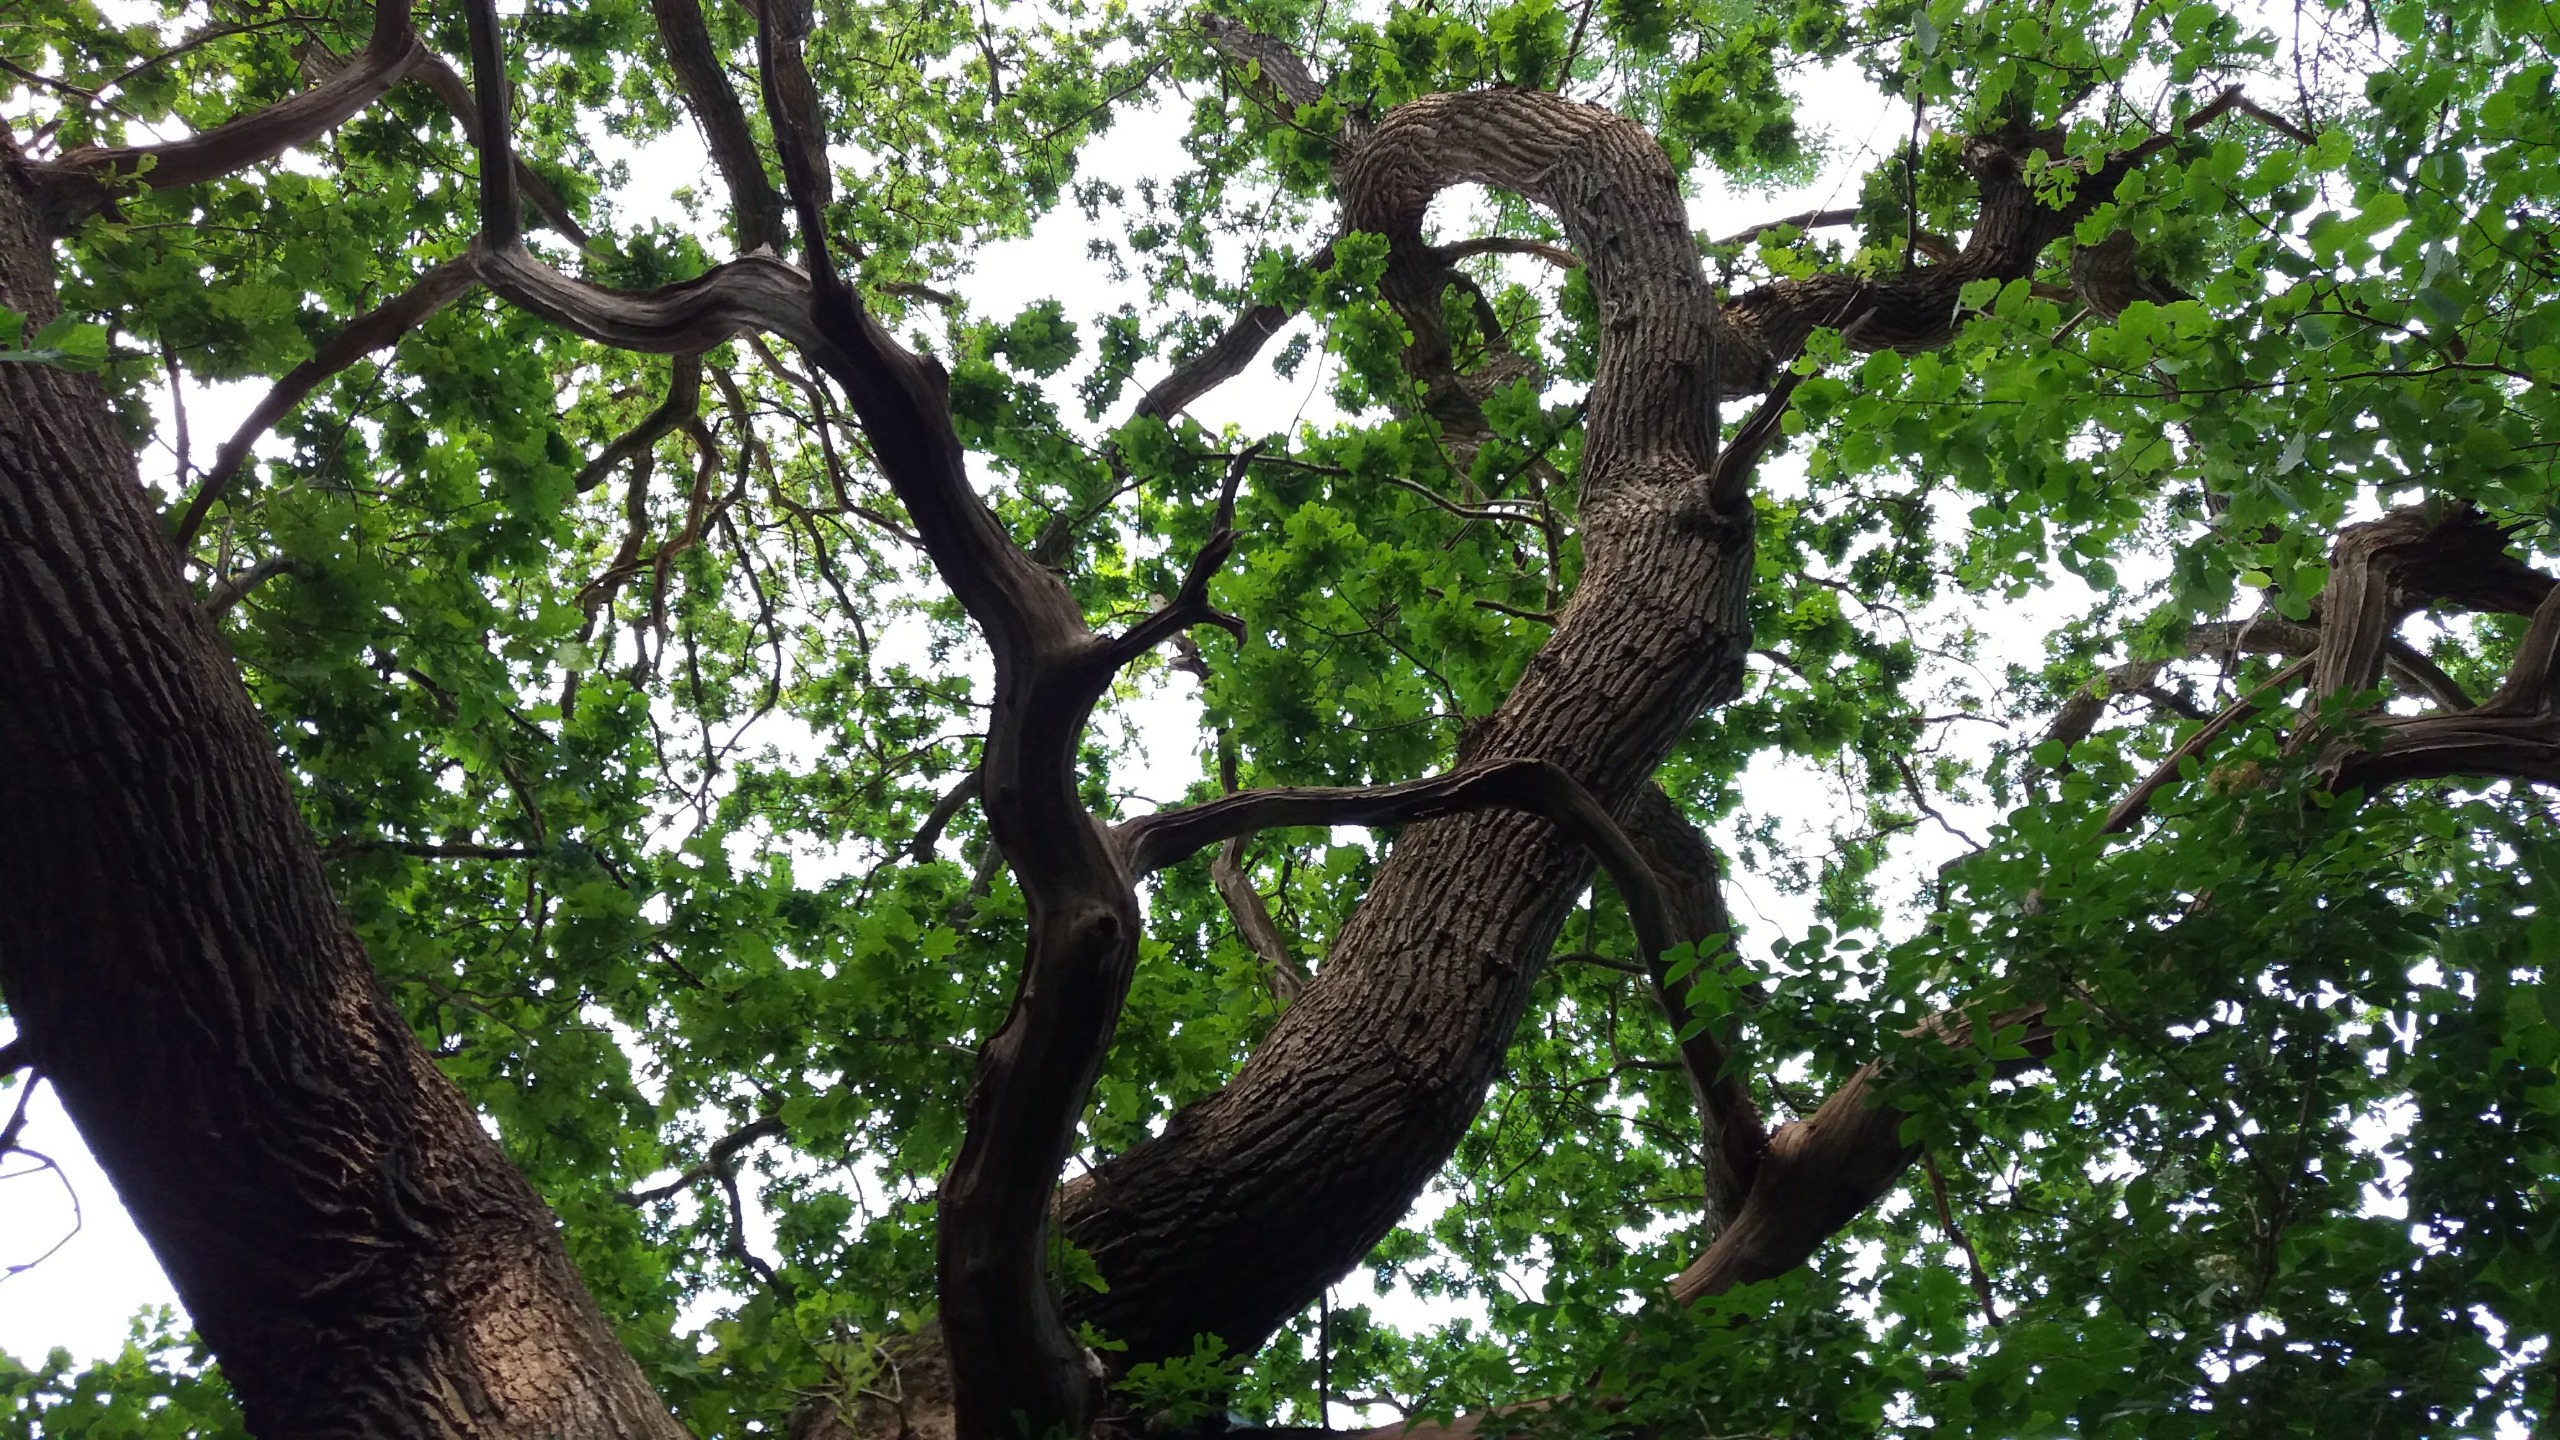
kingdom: Plantae
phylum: Tracheophyta
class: Magnoliopsida
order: Fagales
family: Fagaceae
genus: Quercus
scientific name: Quercus robur
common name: Stilk-eg/almindelig eg
